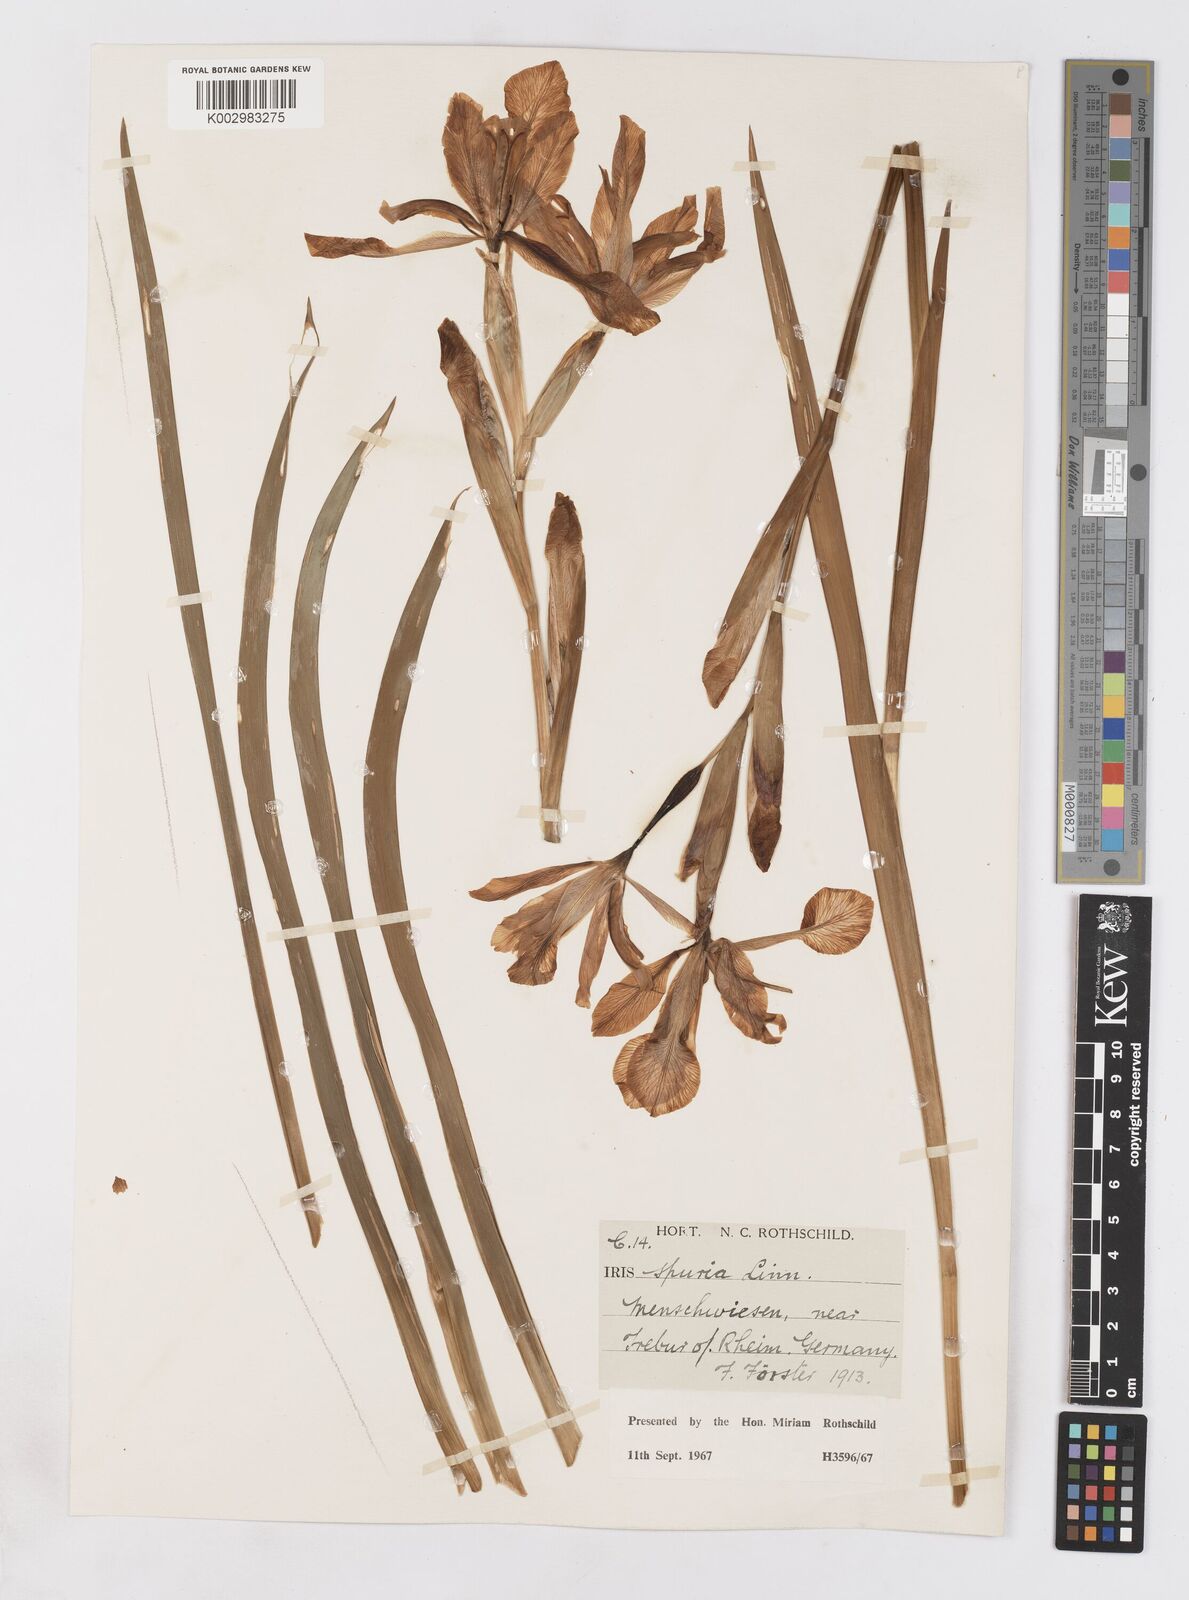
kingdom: Plantae
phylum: Tracheophyta
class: Liliopsida
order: Asparagales
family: Iridaceae
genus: Iris
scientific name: Iris spuria
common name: Blue iris
